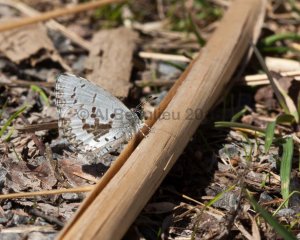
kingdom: Animalia
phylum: Arthropoda
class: Insecta
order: Lepidoptera
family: Lycaenidae
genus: Celastrina
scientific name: Celastrina lucia
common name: Northern Spring Azure
